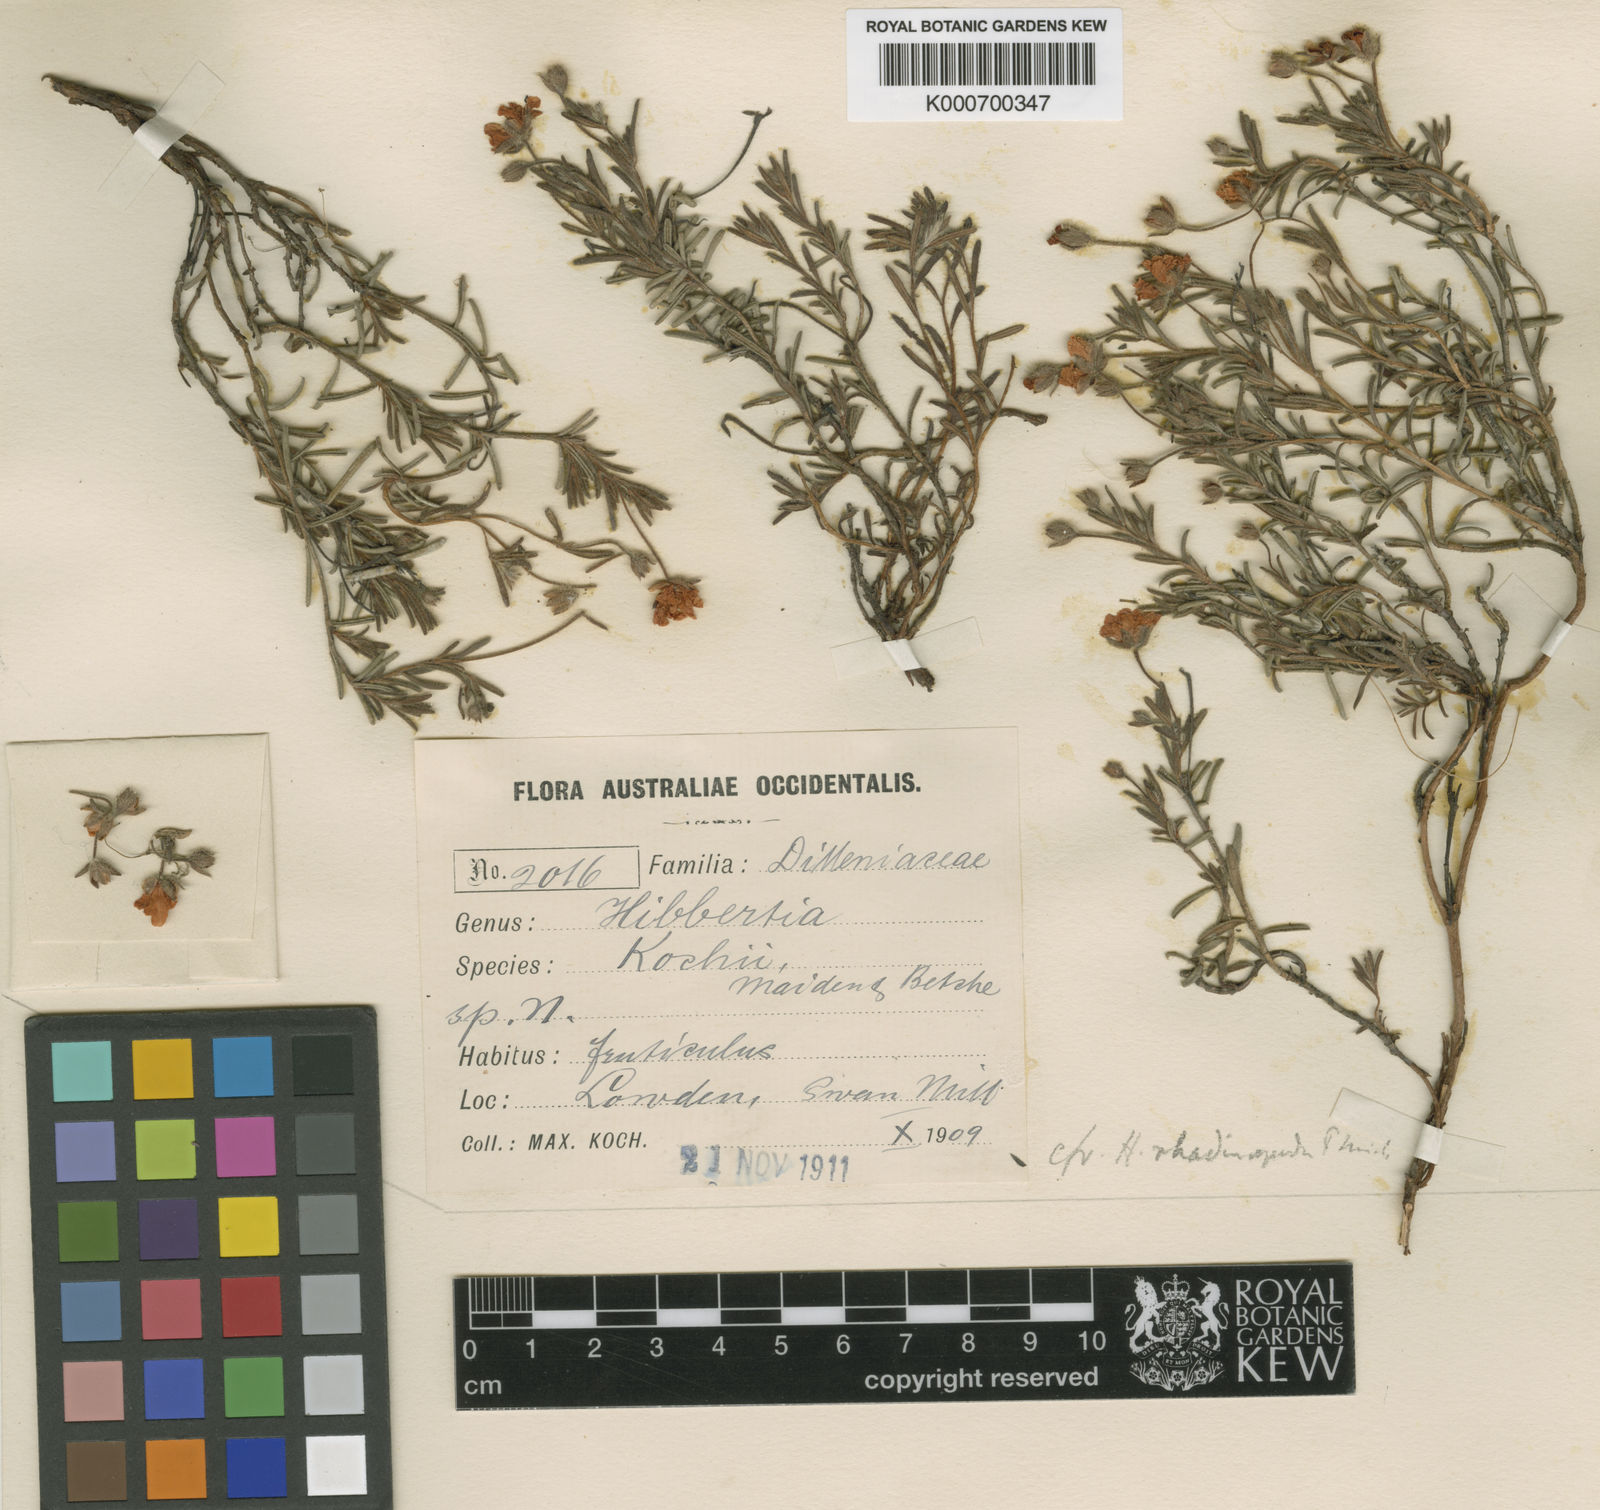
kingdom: Plantae
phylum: Tracheophyta
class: Magnoliopsida
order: Dilleniales
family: Dilleniaceae
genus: Hibbertia
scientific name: Hibbertia rhadinopoda
